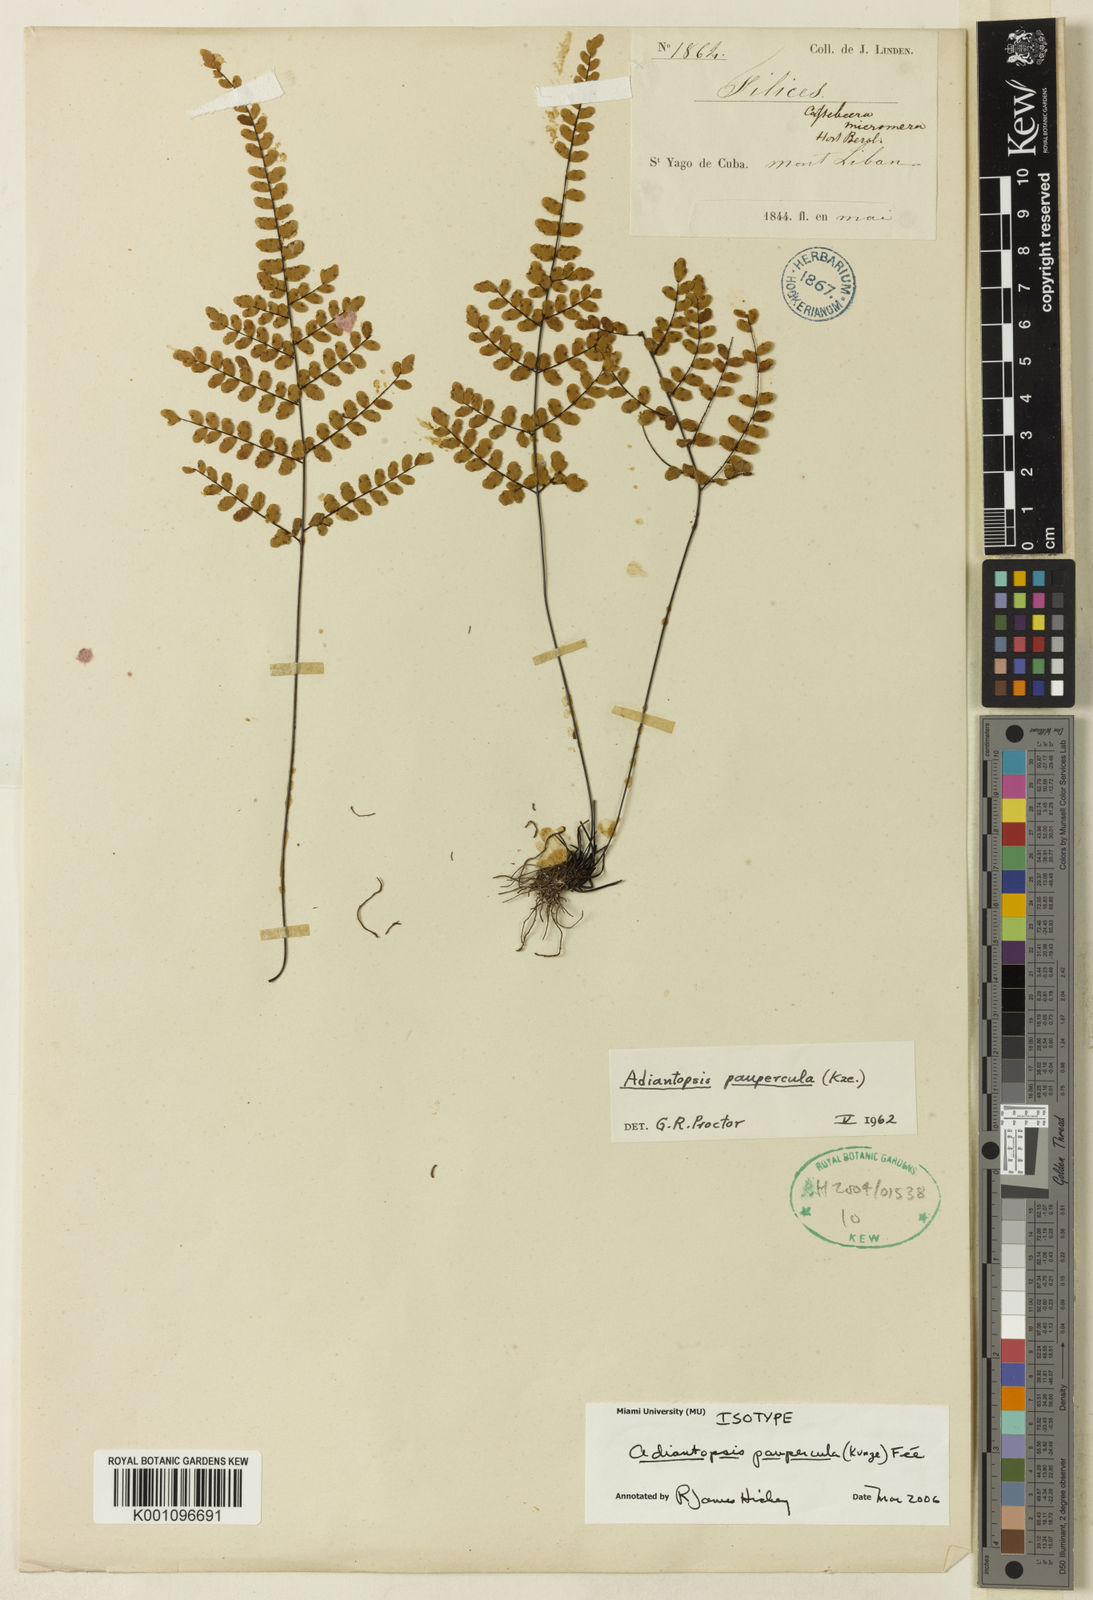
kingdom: Plantae
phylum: Tracheophyta
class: Polypodiopsida
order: Polypodiales
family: Pteridaceae
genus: Adiantopsis
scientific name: Adiantopsis
